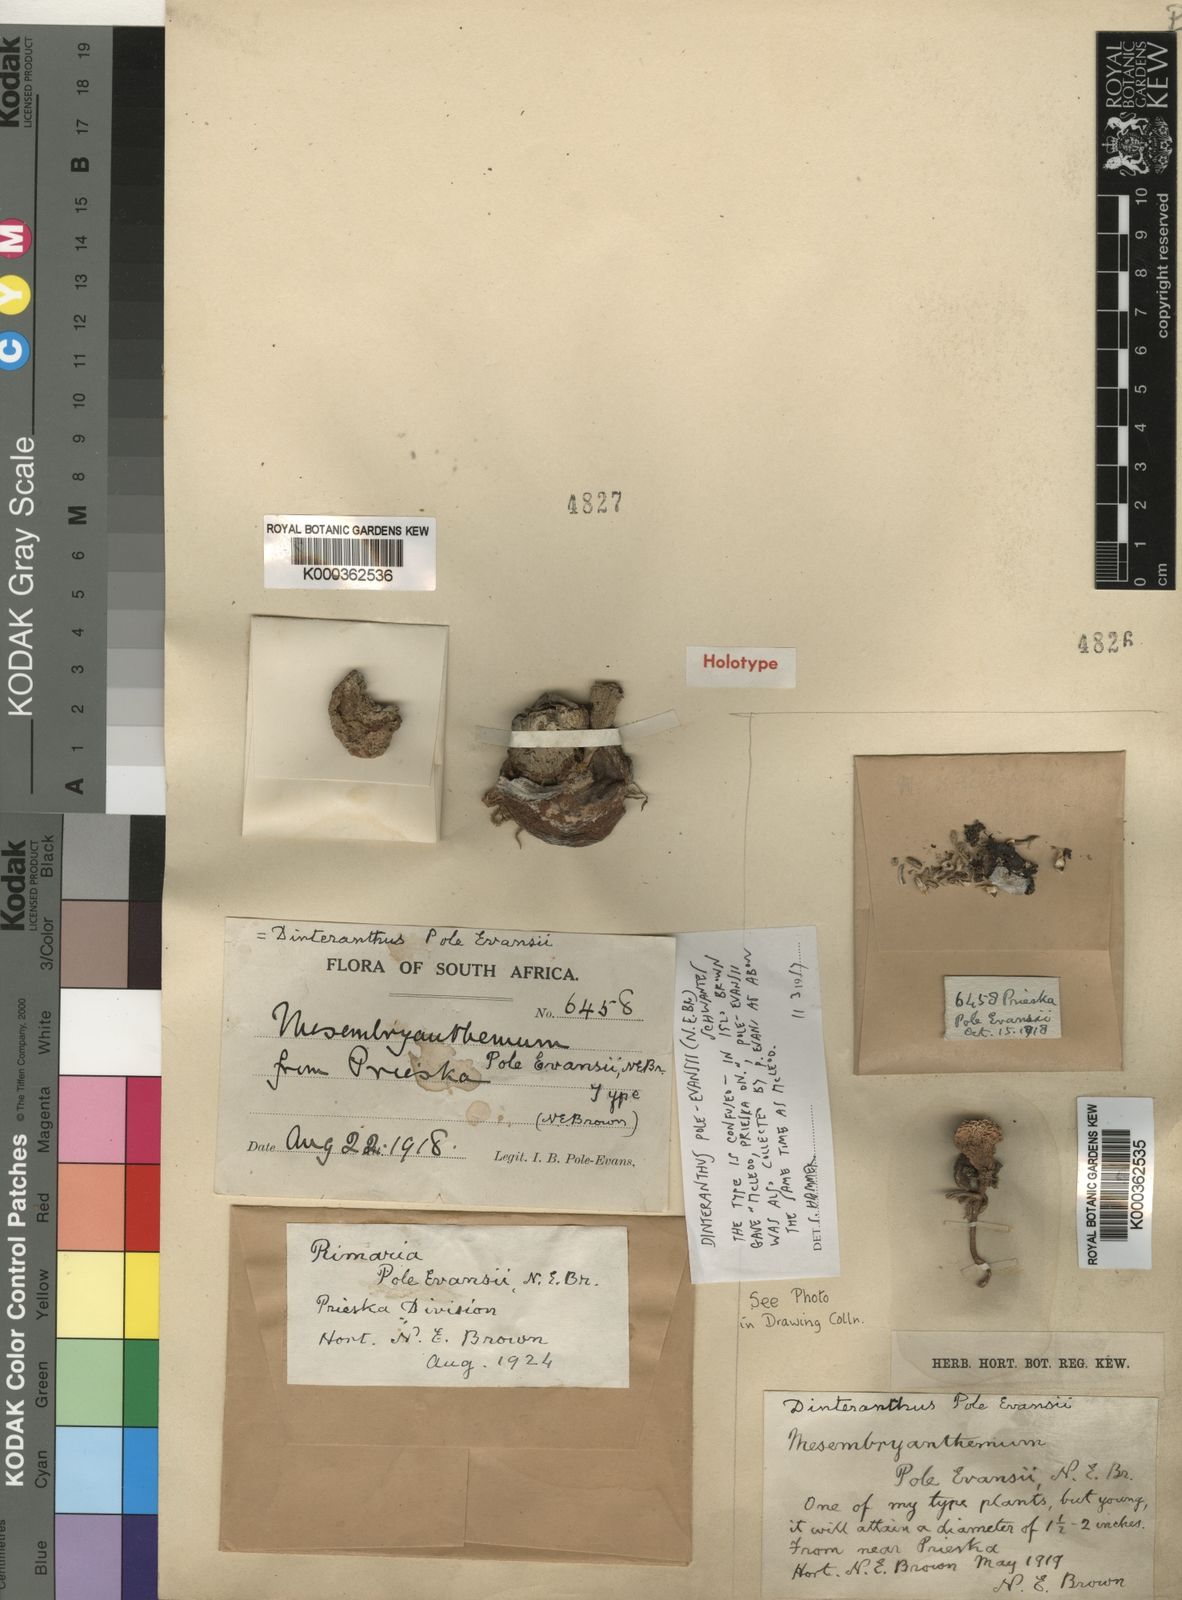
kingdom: Plantae
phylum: Tracheophyta
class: Magnoliopsida
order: Caryophyllales
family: Aizoaceae
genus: Dinteranthus
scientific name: Dinteranthus microspermus
